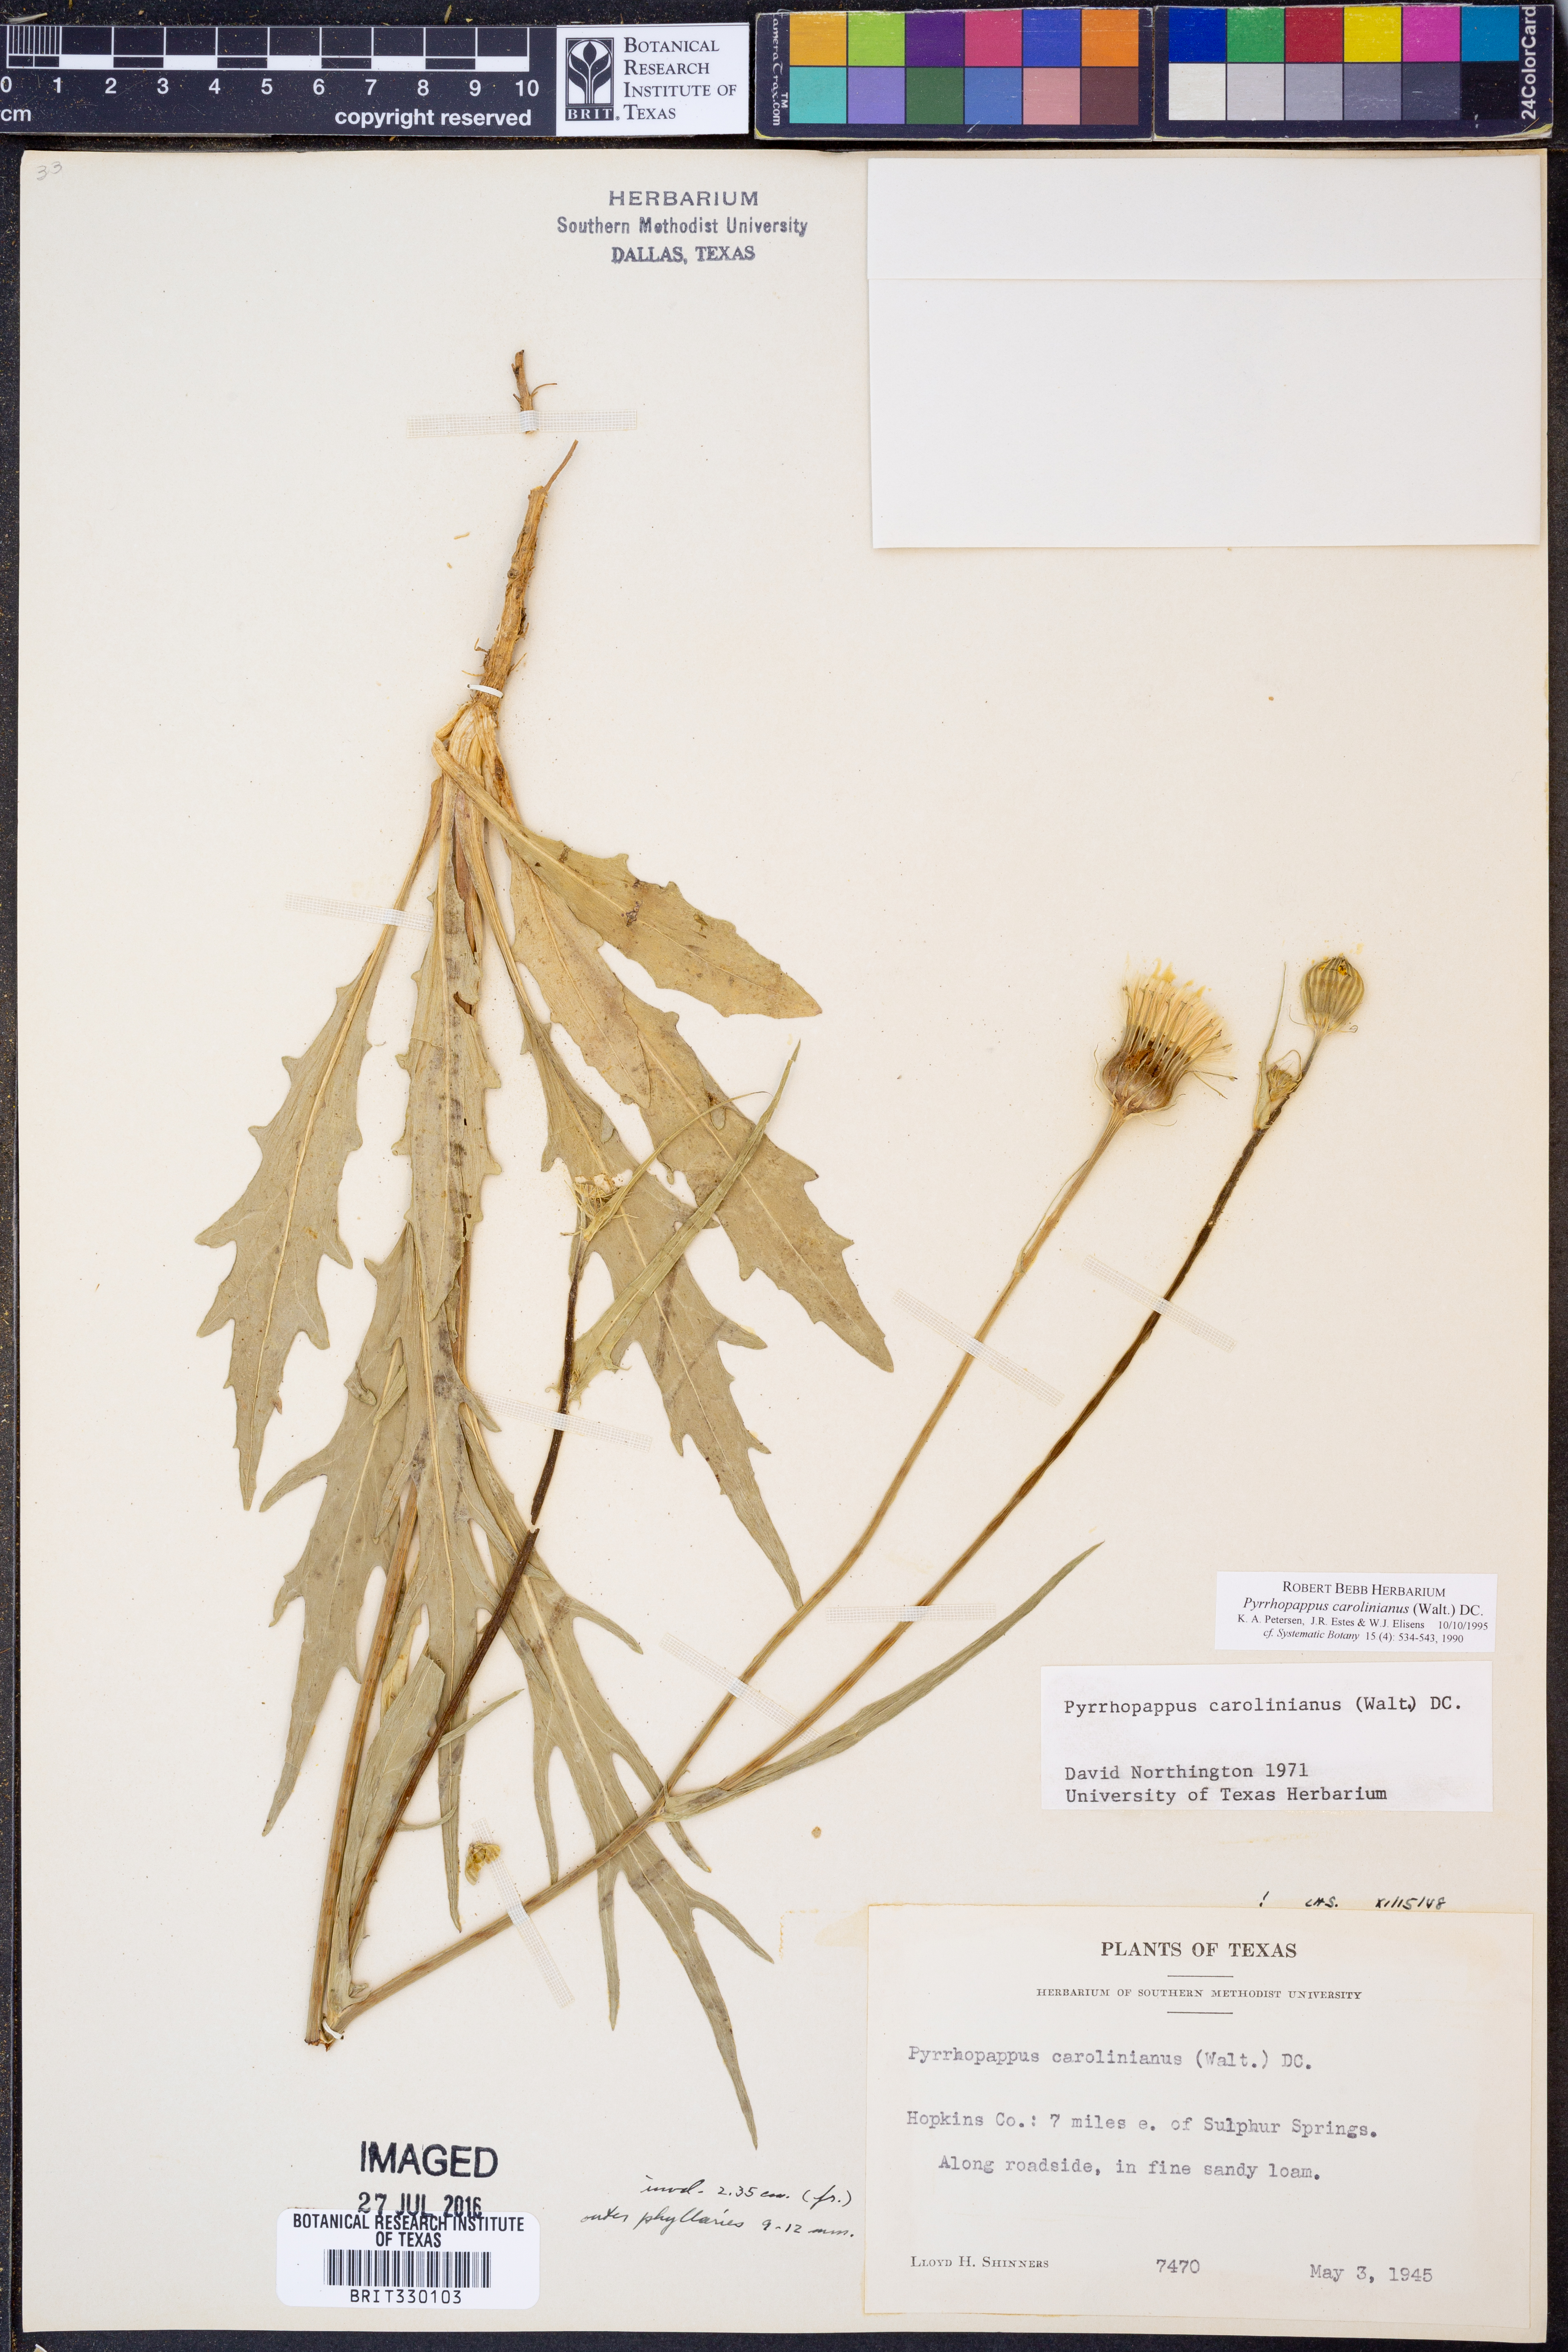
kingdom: Plantae
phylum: Tracheophyta
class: Magnoliopsida
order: Asterales
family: Asteraceae
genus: Pyrrhopappus
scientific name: Pyrrhopappus carolinianus
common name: Carolina desert-chicory
